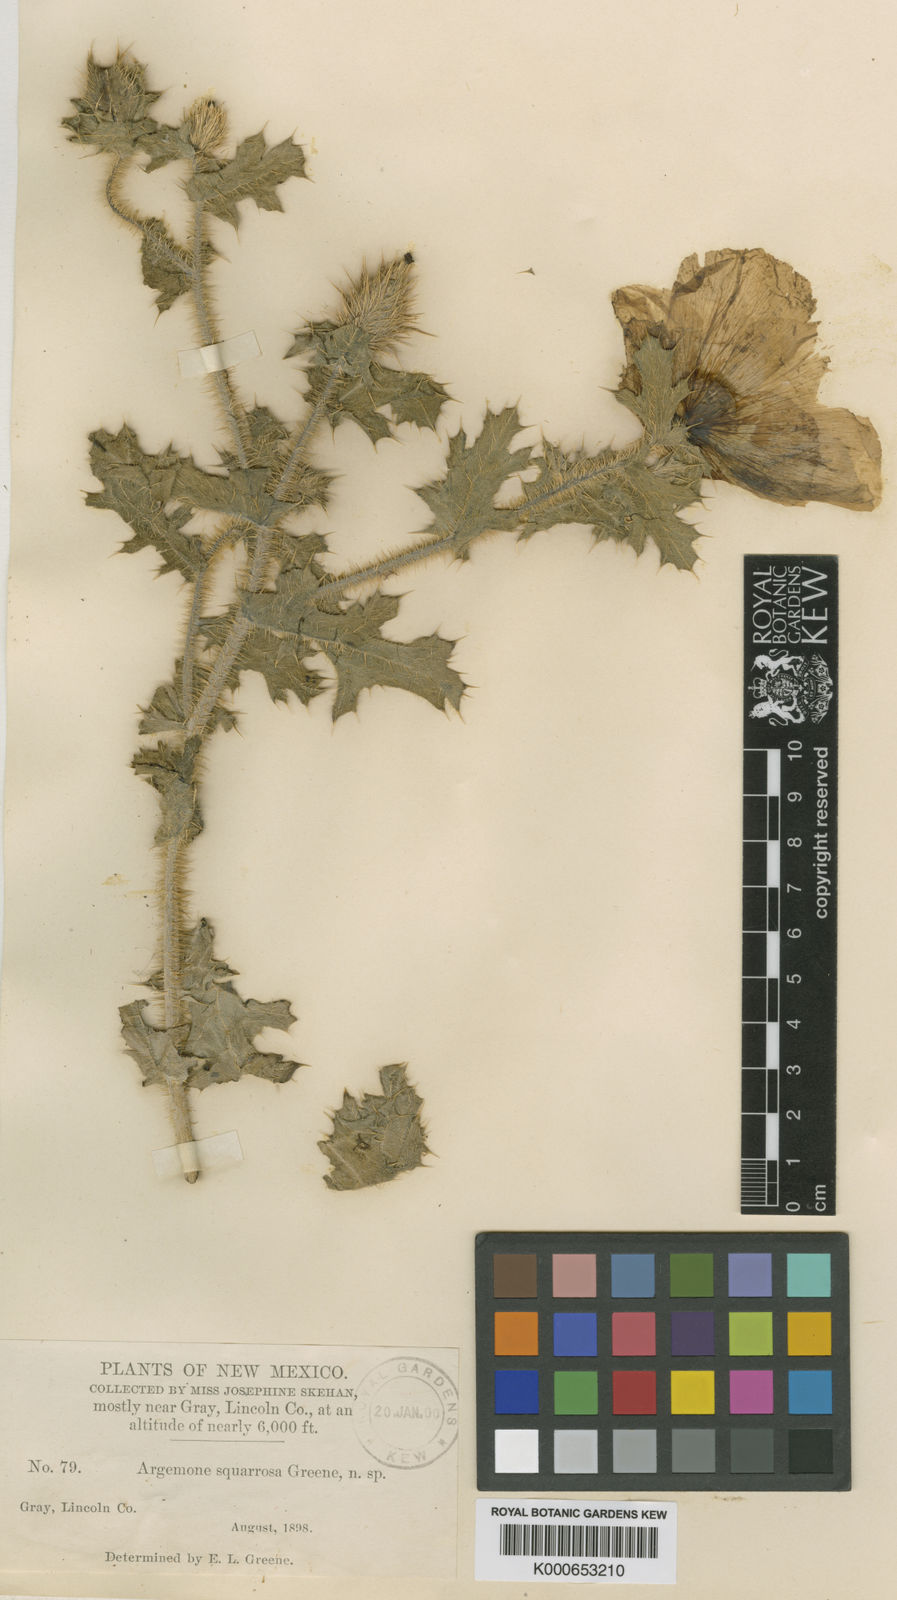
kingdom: Plantae
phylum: Tracheophyta
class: Magnoliopsida
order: Ranunculales
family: Papaveraceae
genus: Argemone
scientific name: Argemone squarrosa
